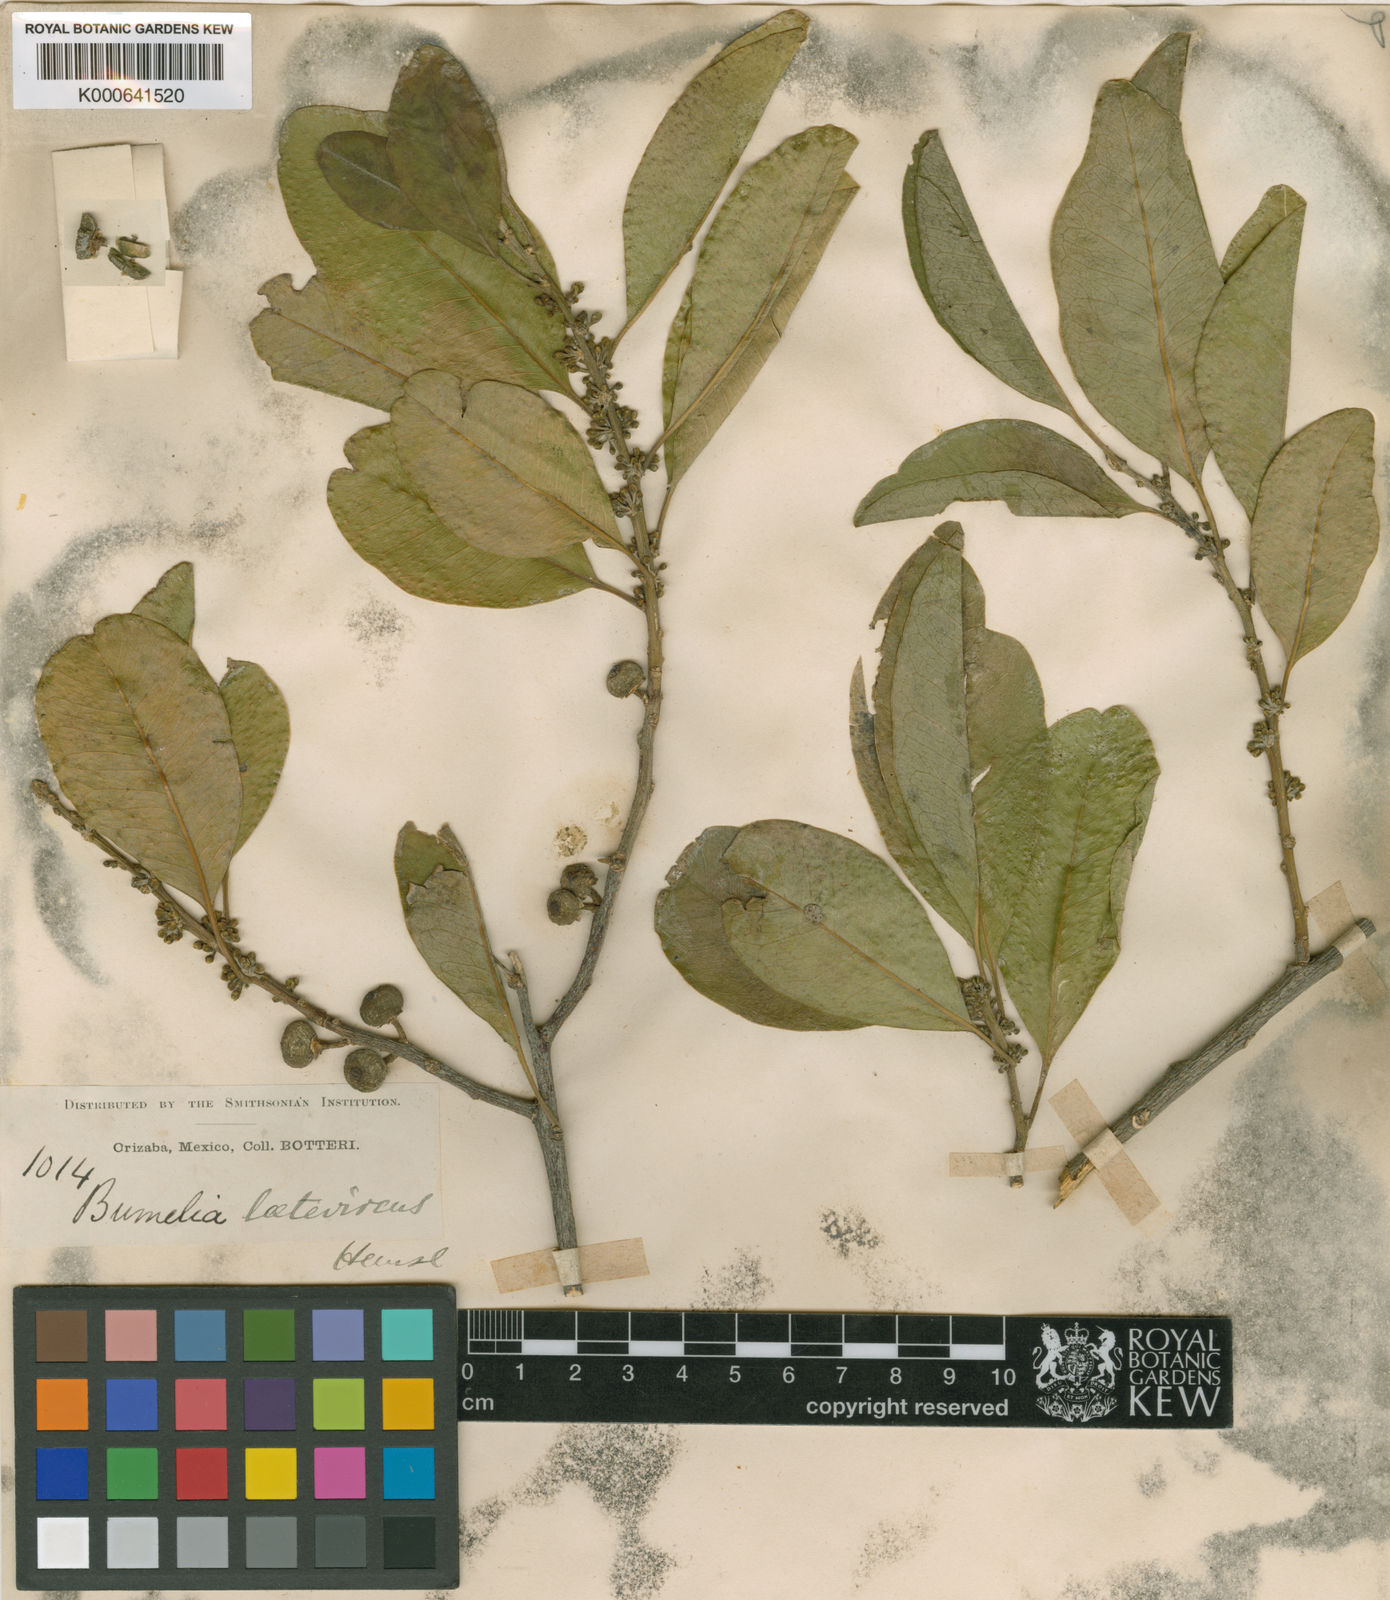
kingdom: Plantae
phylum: Tracheophyta
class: Magnoliopsida
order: Ericales
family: Sapotaceae
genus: Sideroxylon
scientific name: Sideroxylon palmeri
